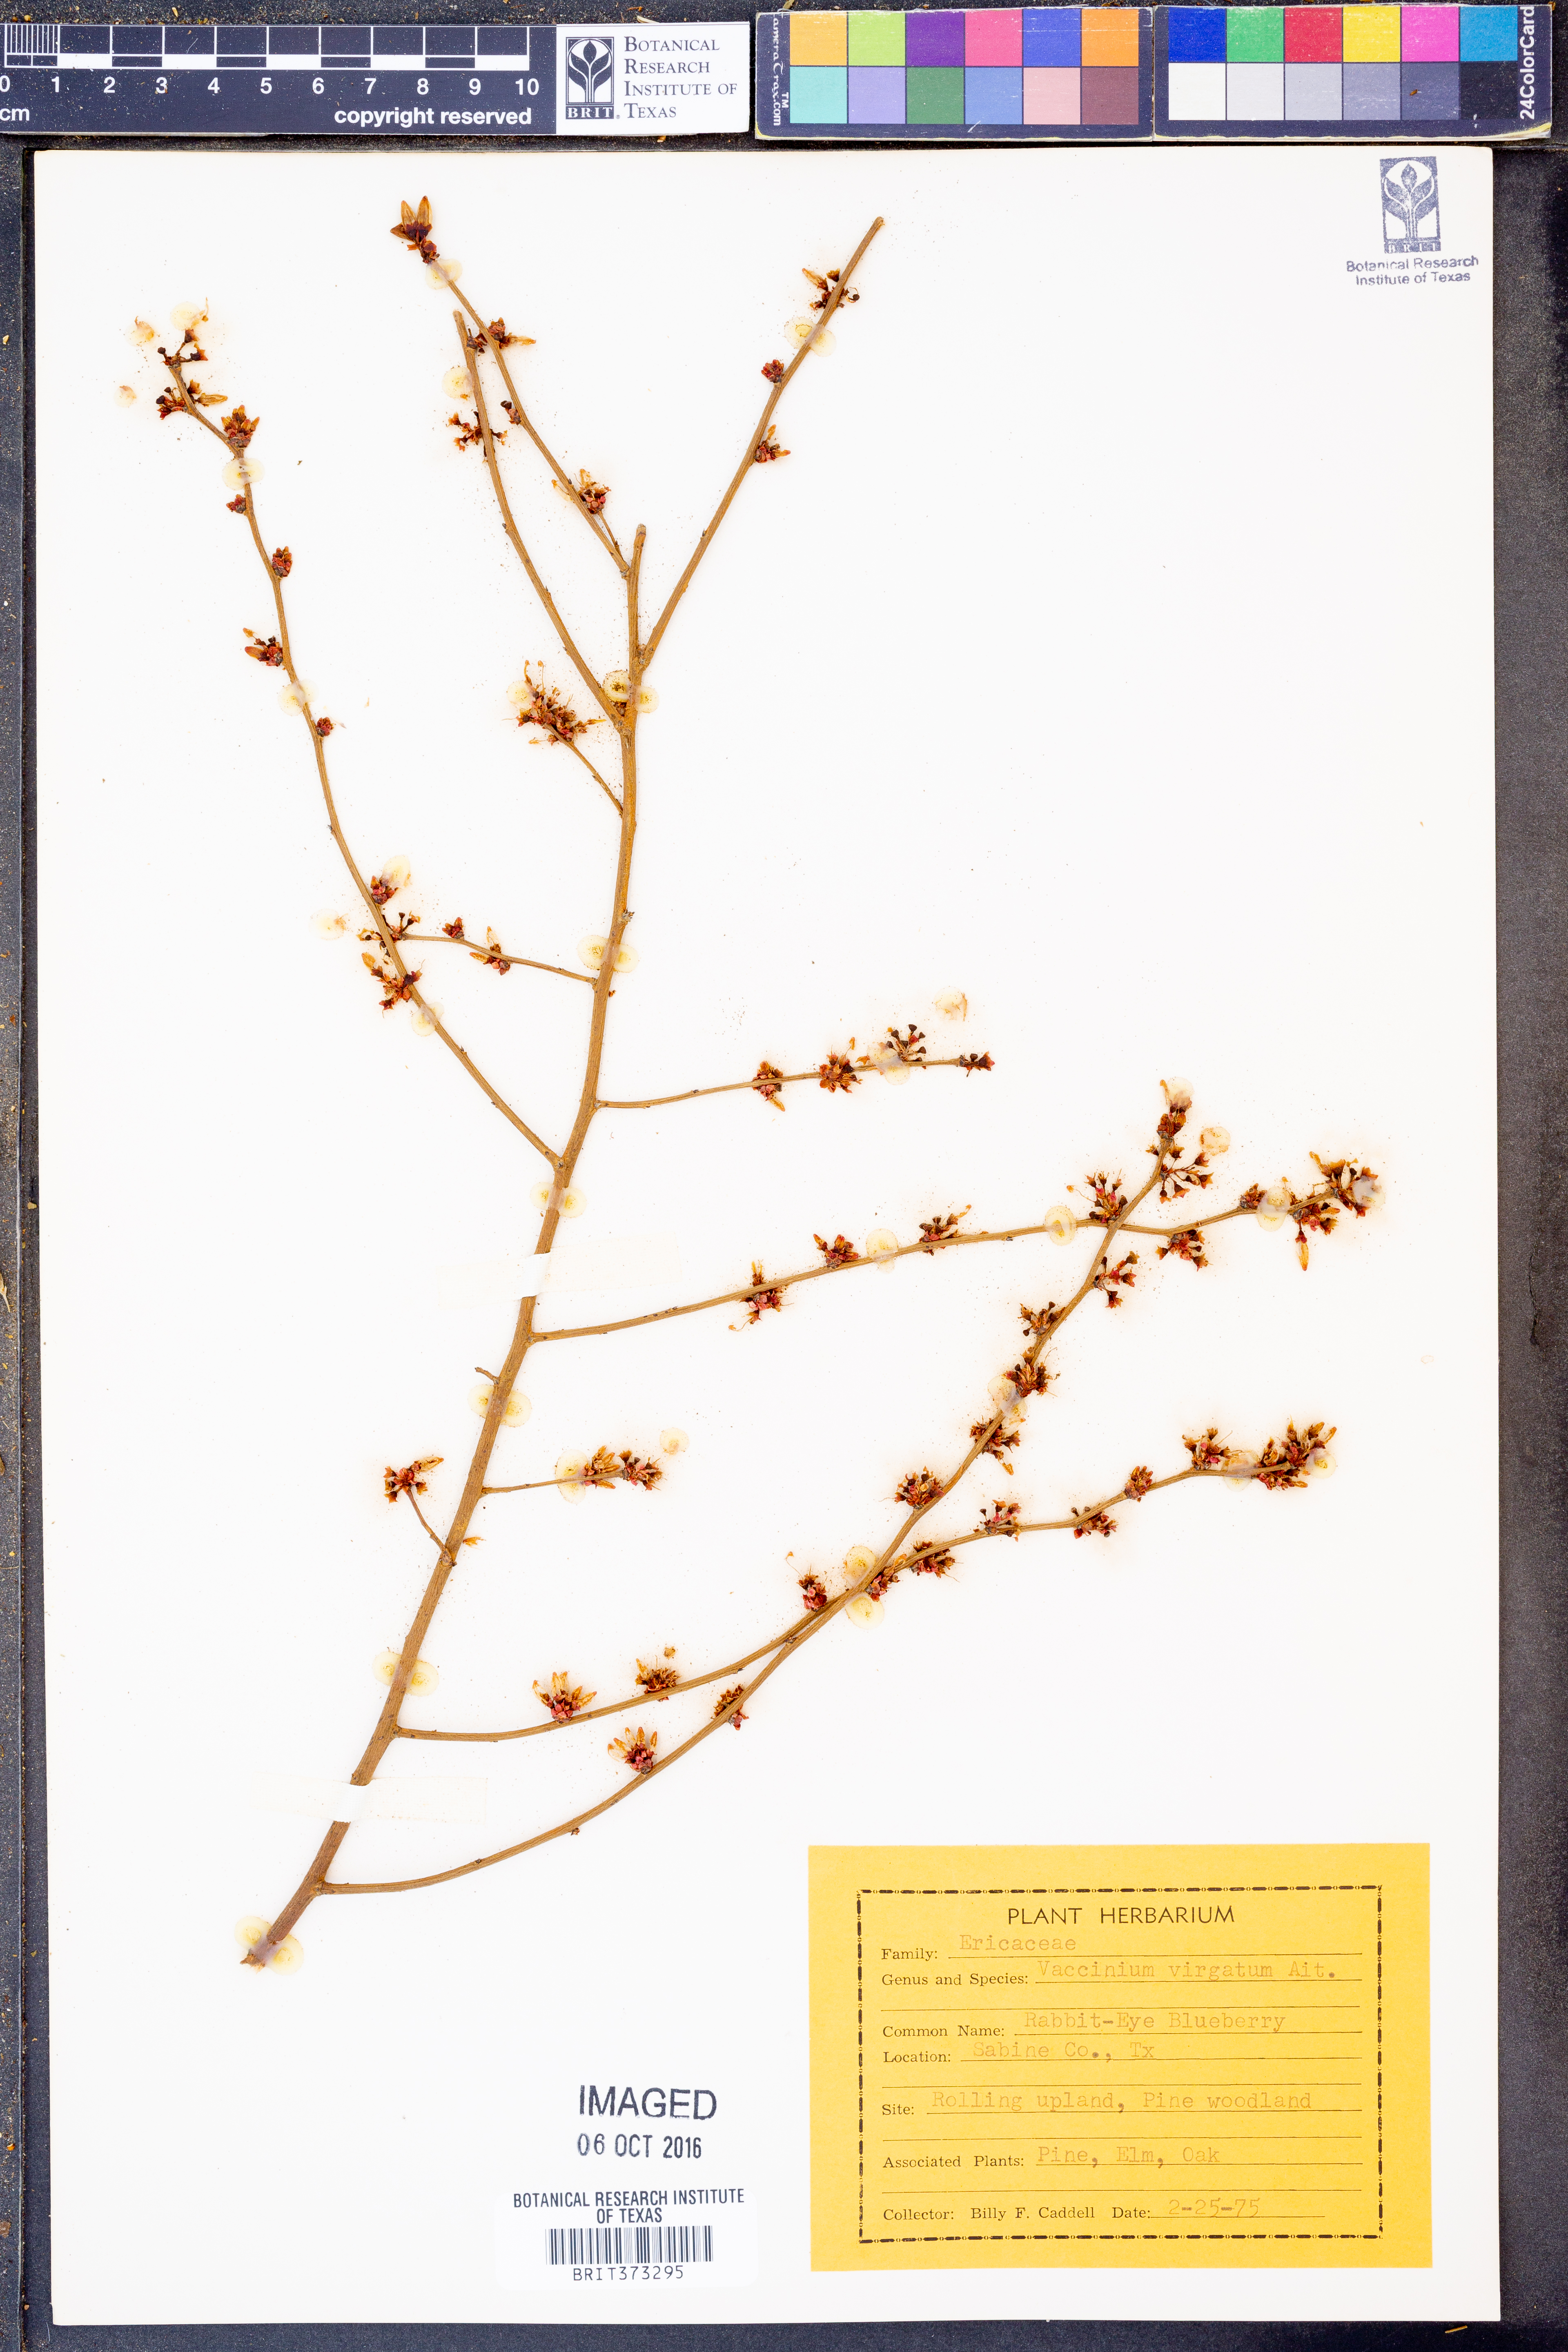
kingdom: Plantae
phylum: Tracheophyta
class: Magnoliopsida
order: Ericales
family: Ericaceae
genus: Vaccinium
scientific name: Vaccinium corymbosum
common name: Blueberry
